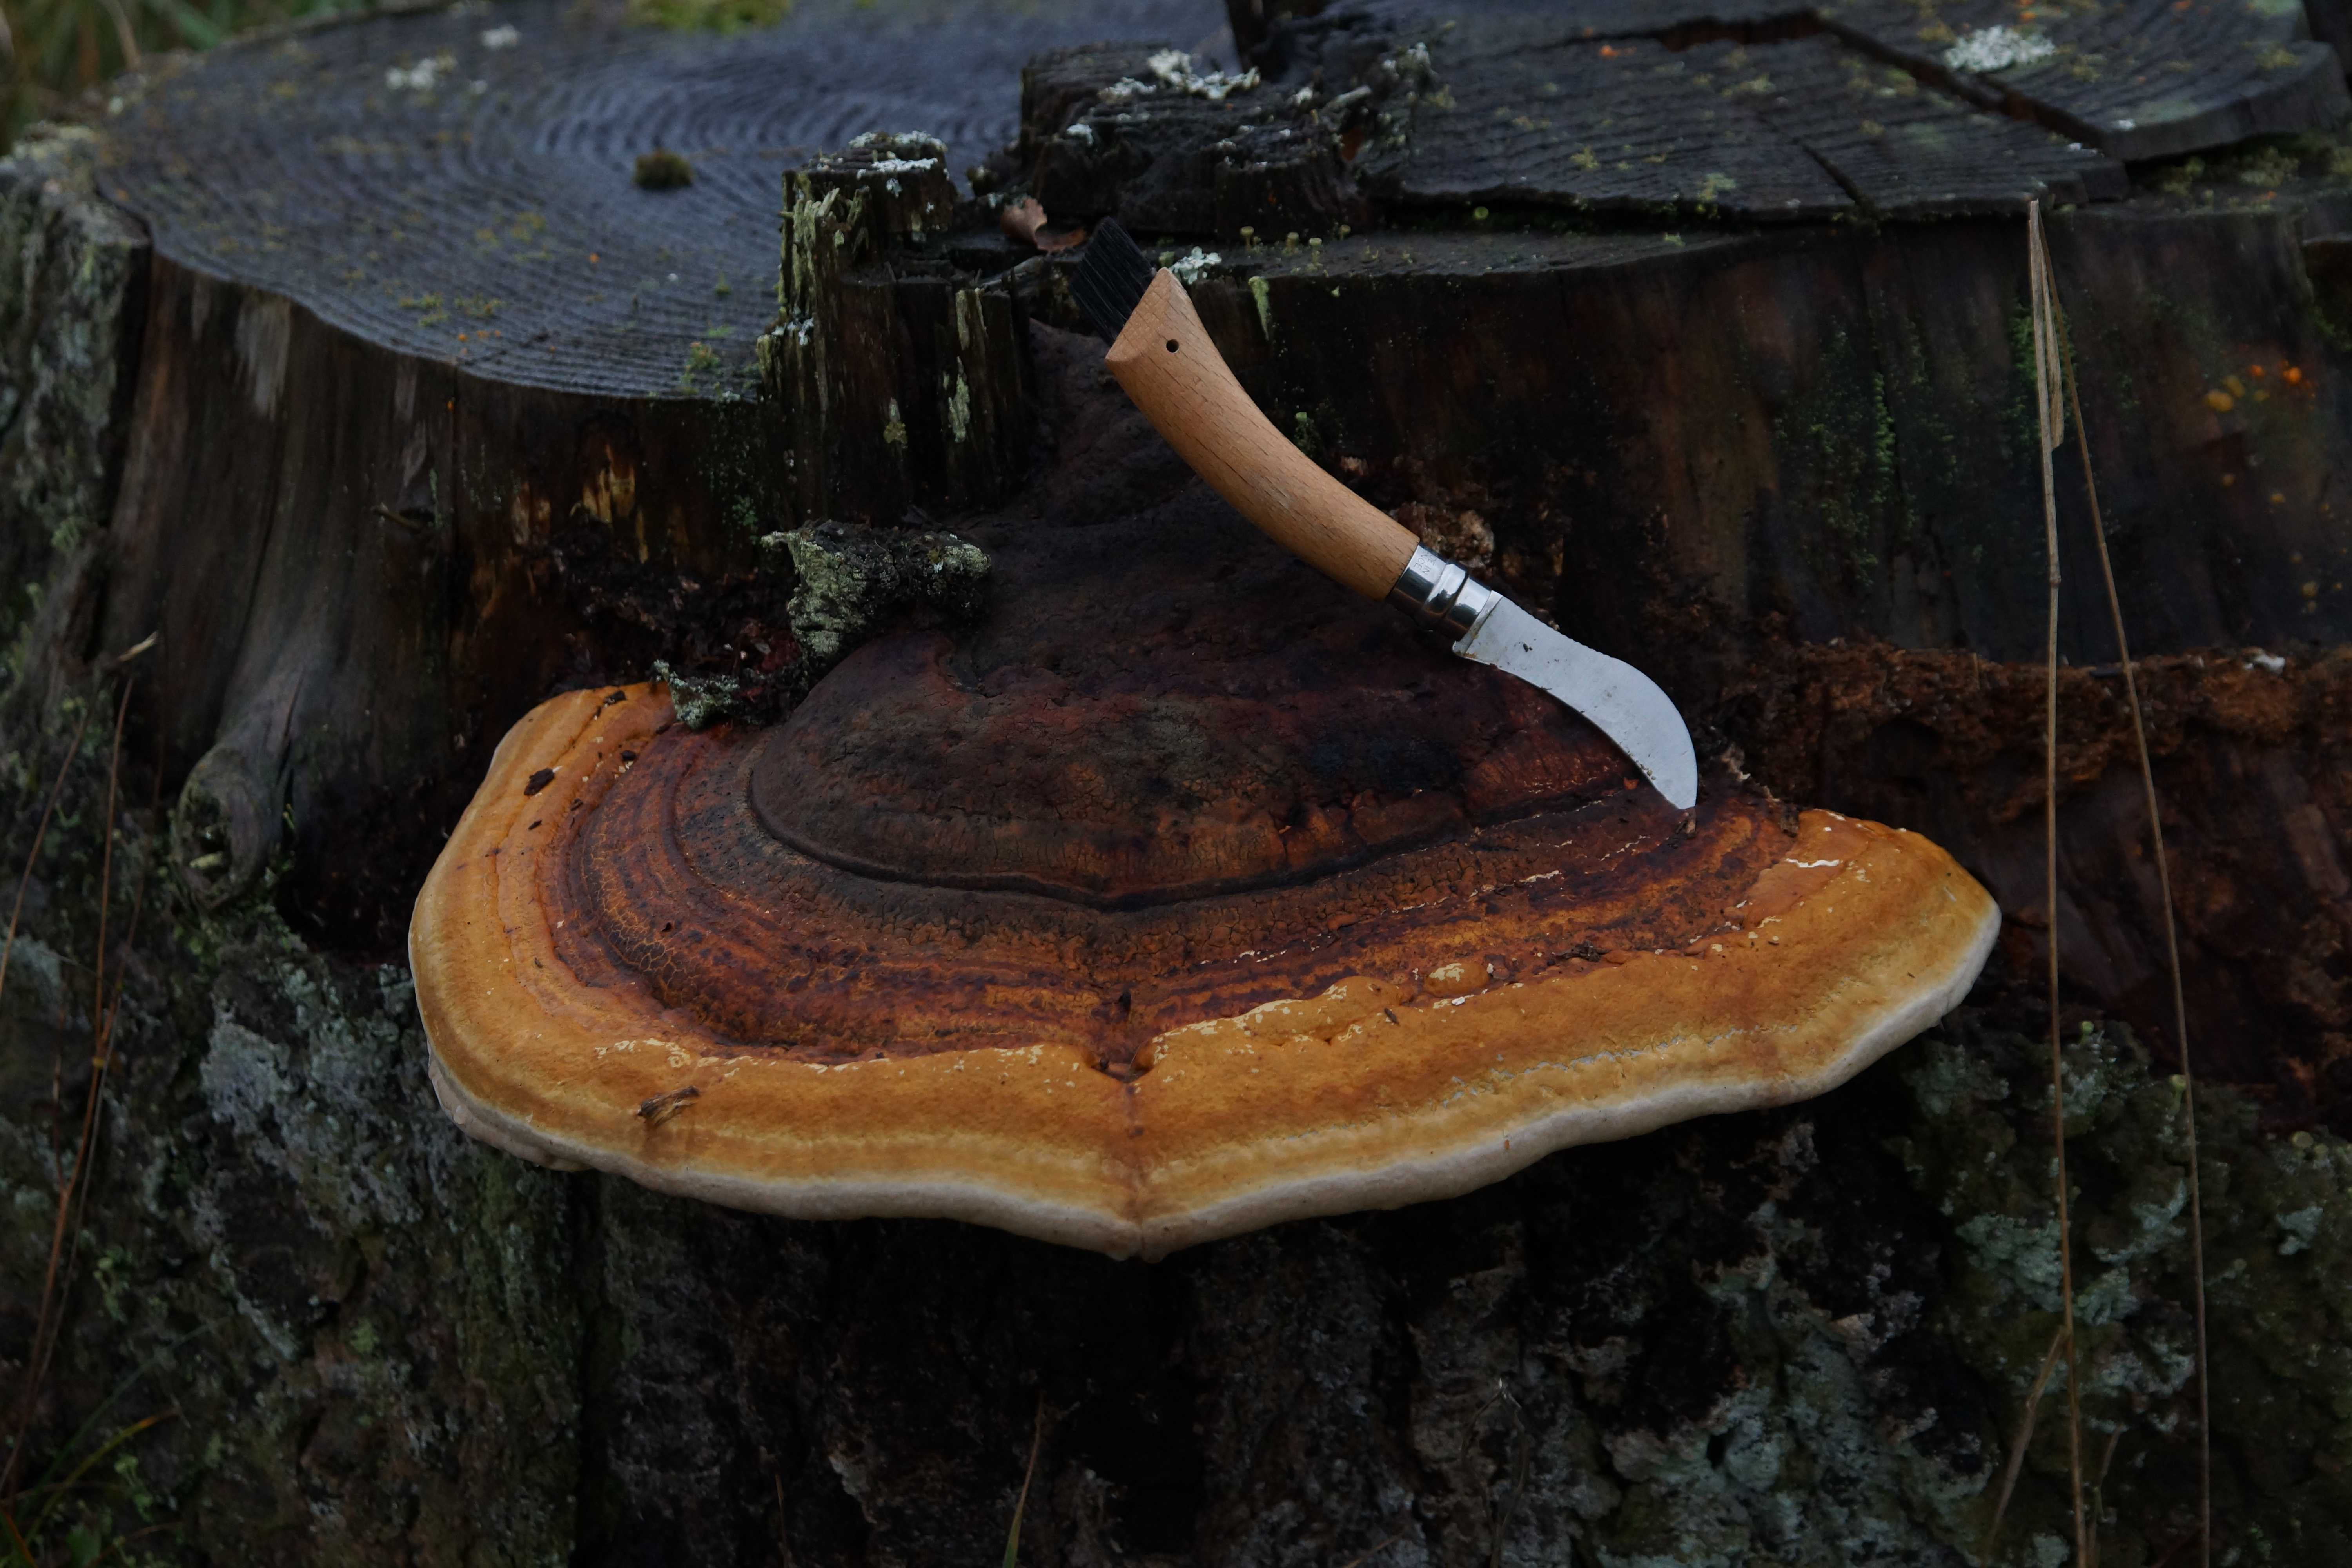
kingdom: Fungi
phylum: Basidiomycota
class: Agaricomycetes
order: Polyporales
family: Fomitopsidaceae
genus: Fomitopsis
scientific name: Fomitopsis pinicola
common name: randbæltet hovporesvamp
